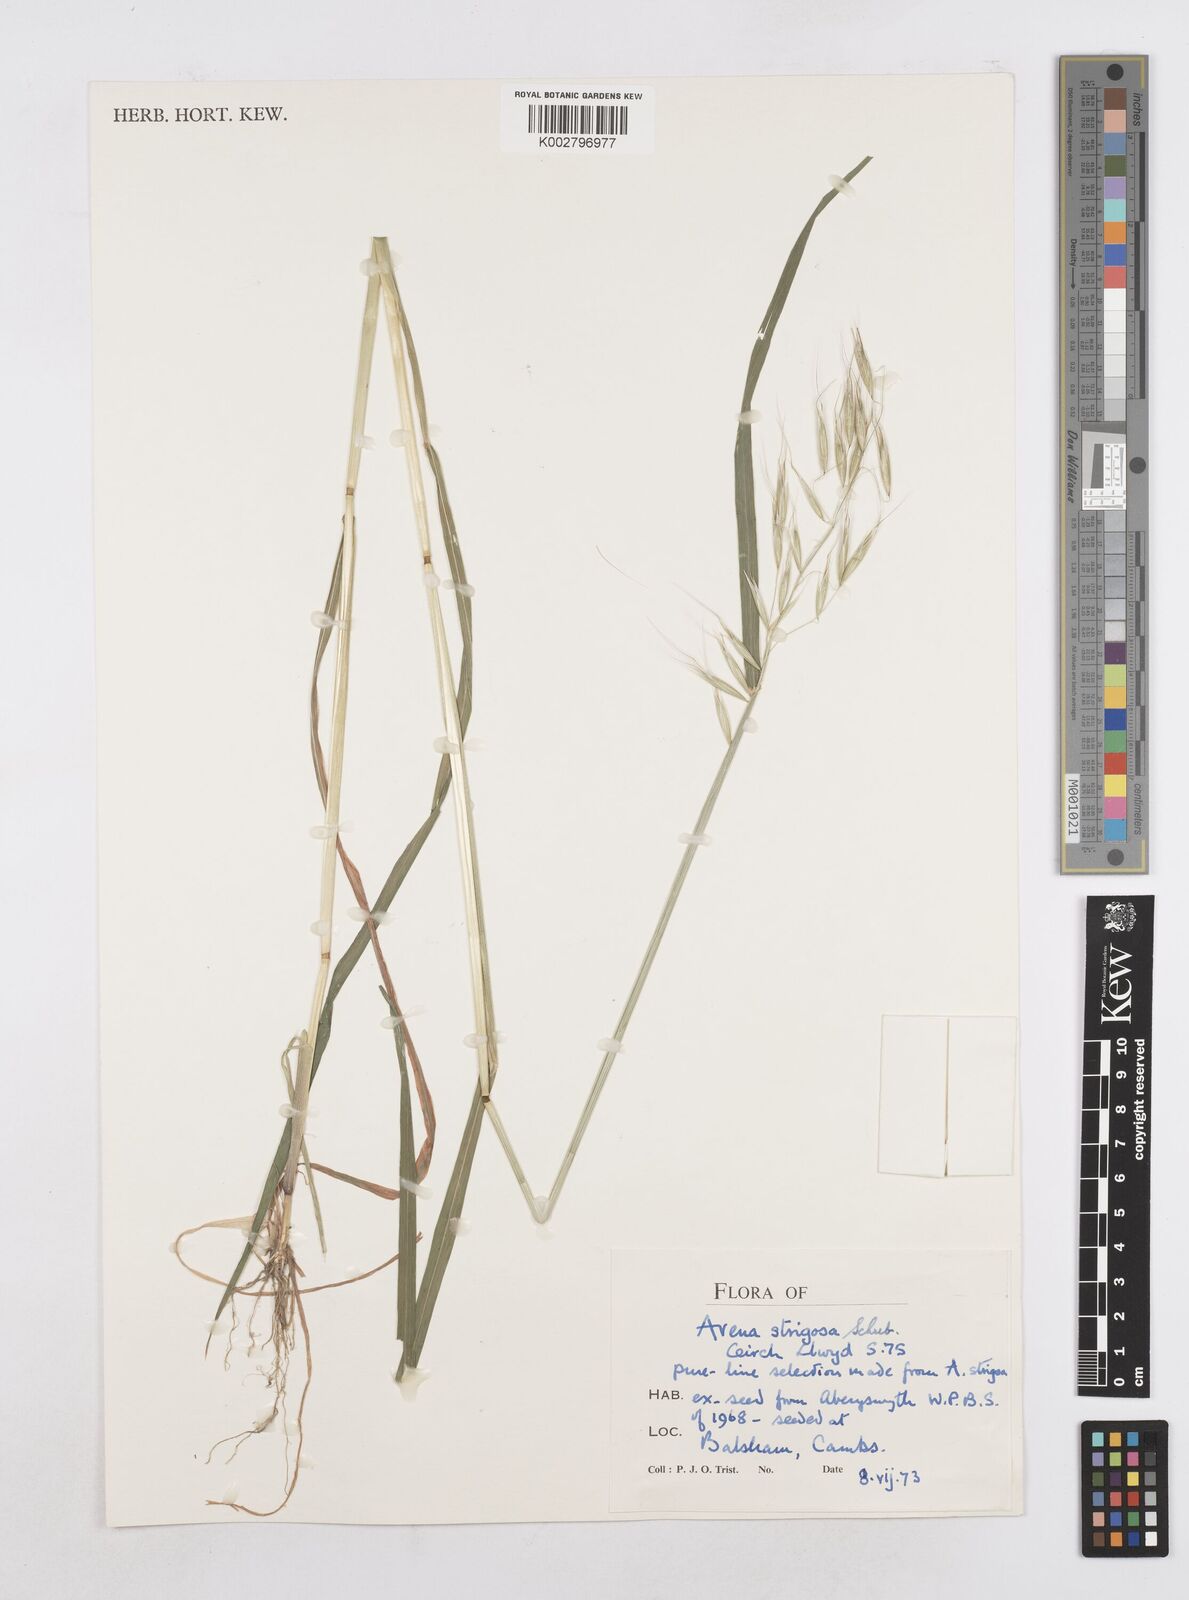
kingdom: Plantae
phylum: Tracheophyta
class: Liliopsida
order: Poales
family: Poaceae
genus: Avena
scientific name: Avena strigosa
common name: Bristle oat
